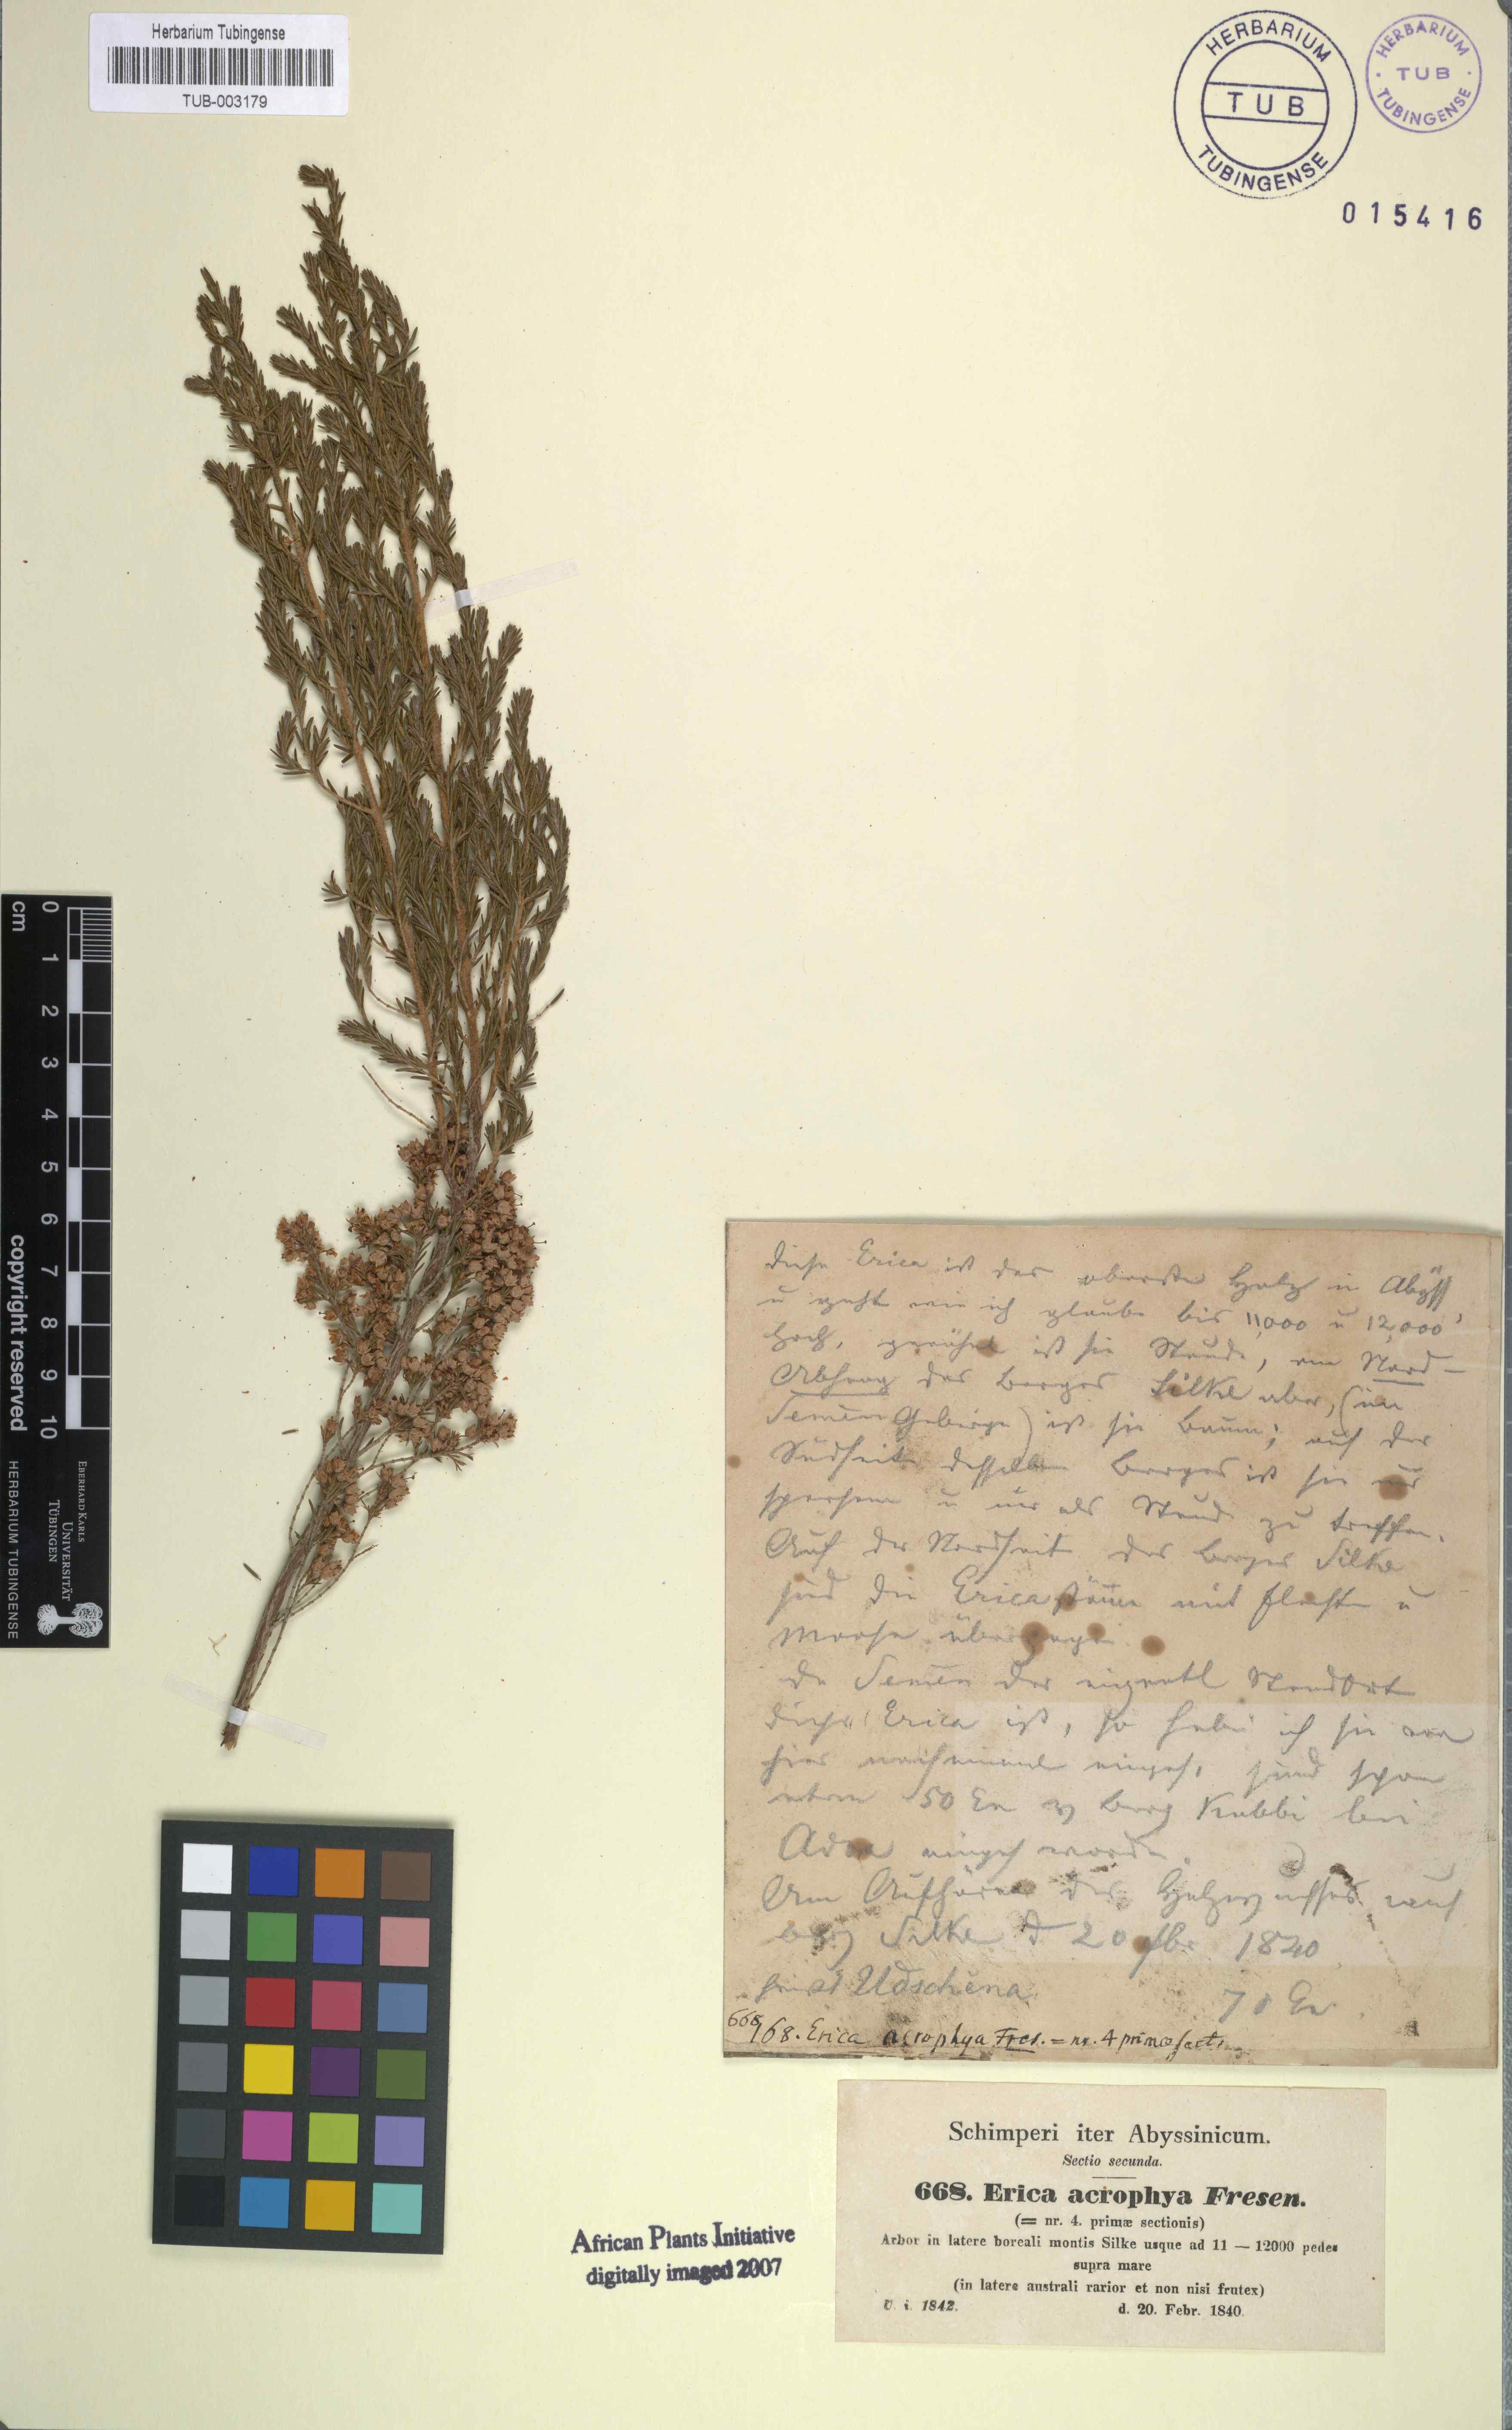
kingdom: Plantae
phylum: Tracheophyta
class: Magnoliopsida
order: Ericales
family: Ericaceae
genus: Erica
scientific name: Erica arborea
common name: Tree heath
